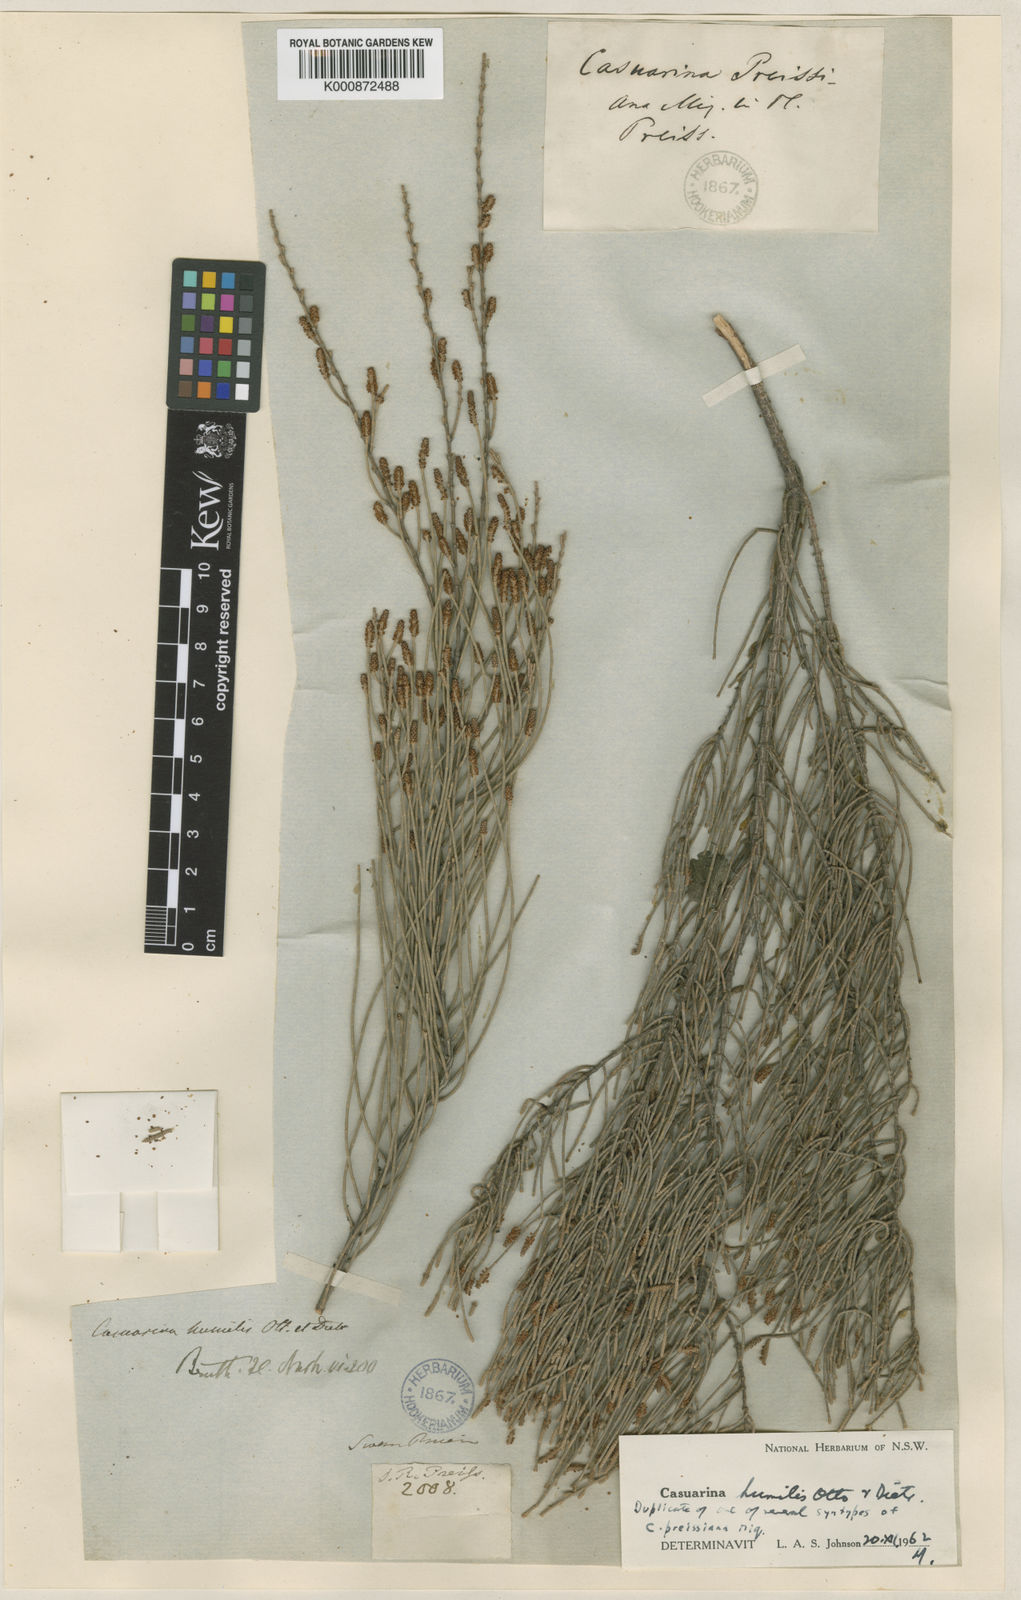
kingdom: Plantae
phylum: Tracheophyta
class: Magnoliopsida
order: Fagales
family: Casuarinaceae
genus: Allocasuarina
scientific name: Allocasuarina humilis
